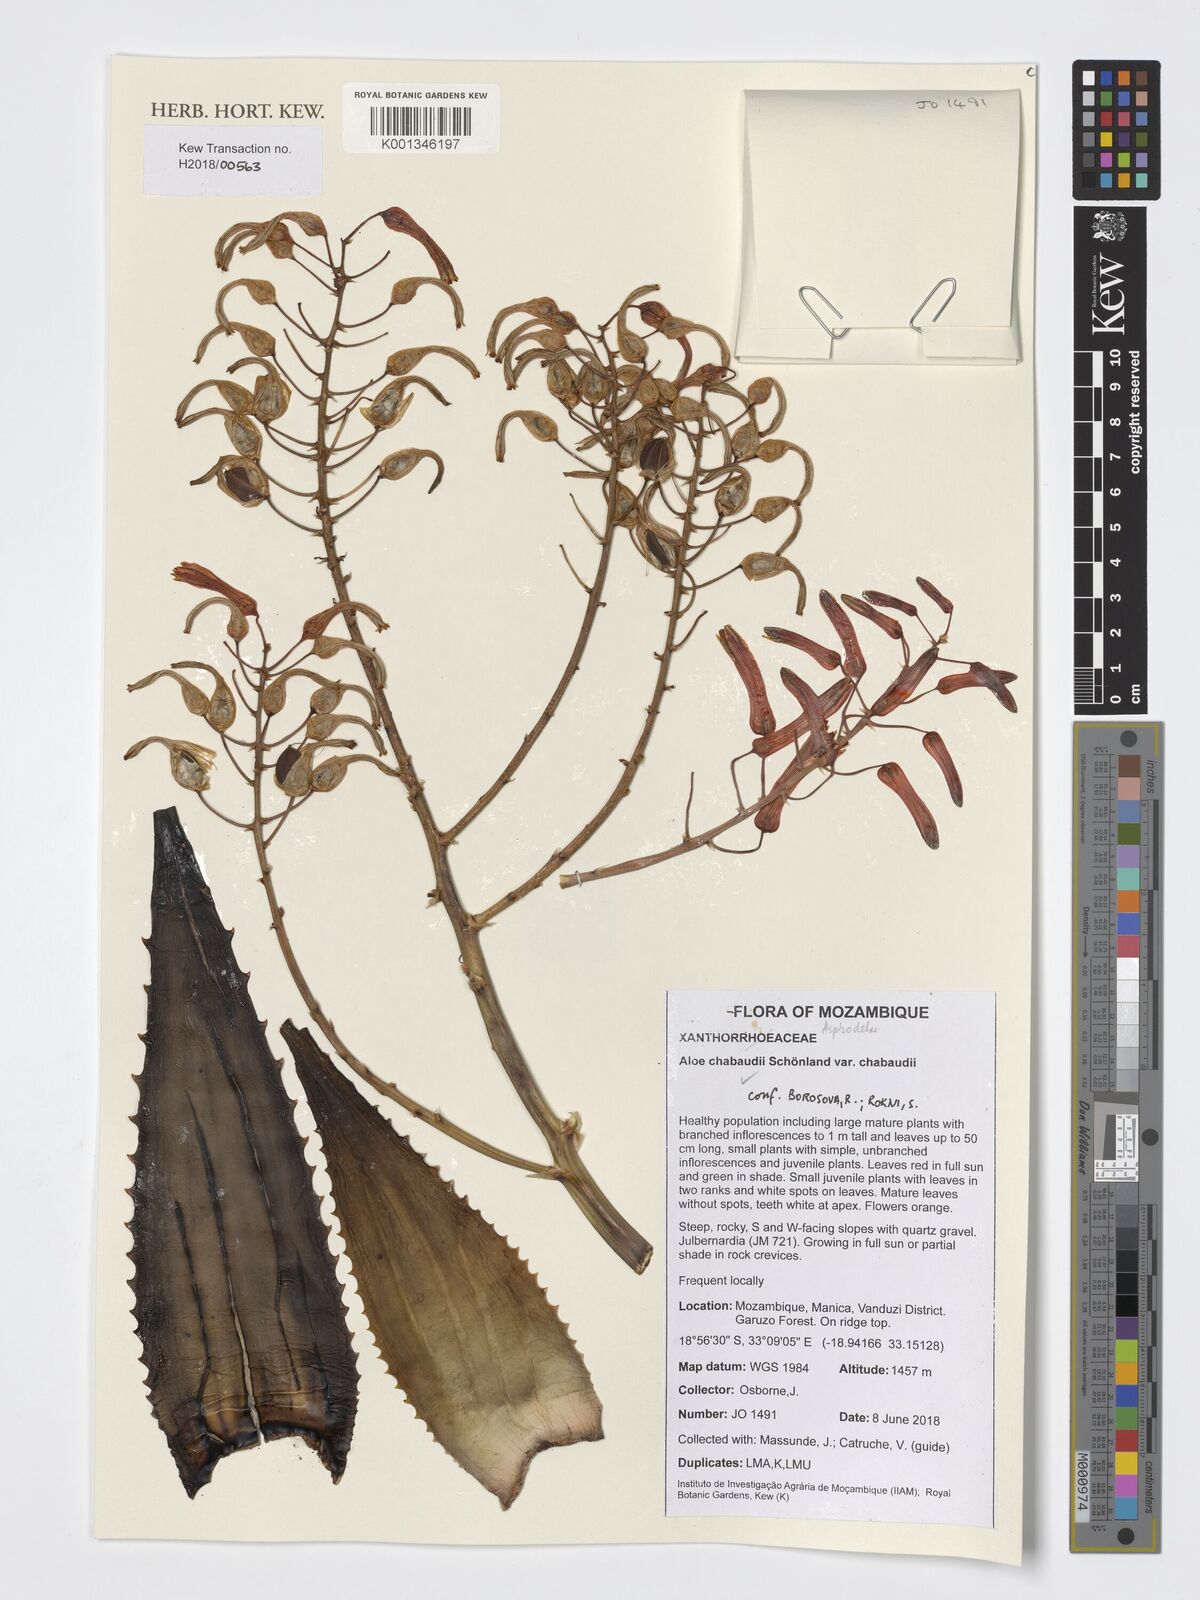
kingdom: Plantae
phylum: Tracheophyta
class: Liliopsida
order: Asparagales
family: Asphodelaceae
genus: Aloe
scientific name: Aloe chabaudii
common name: Chabaud's aloe
